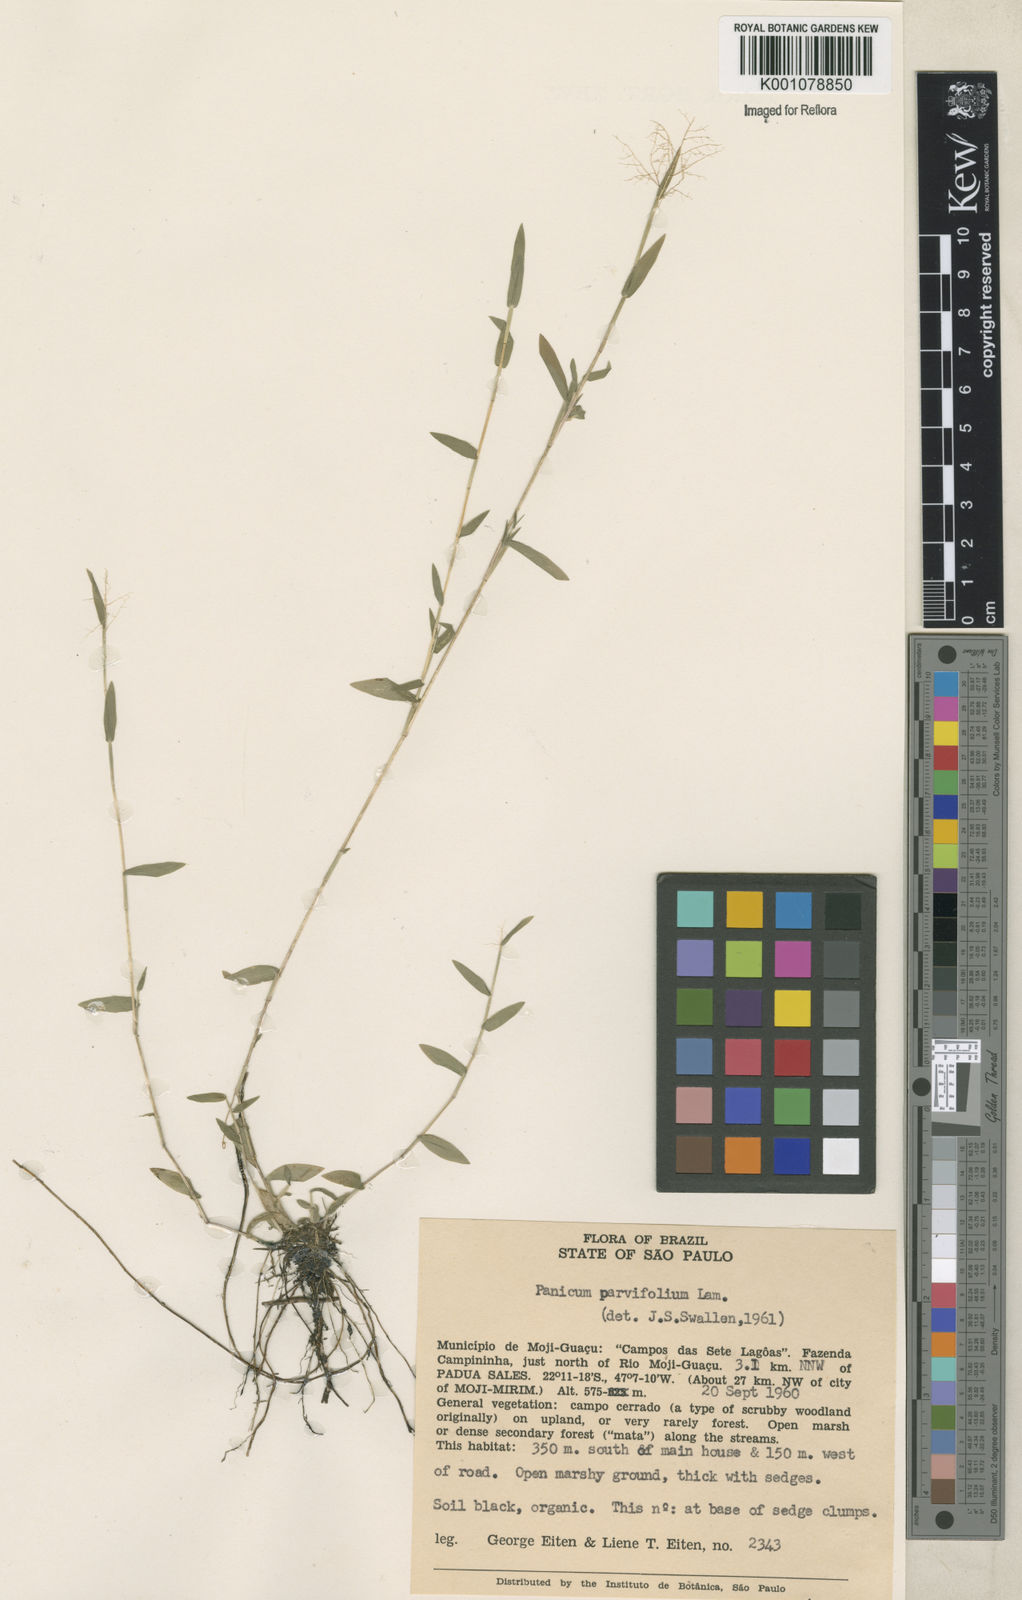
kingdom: Plantae
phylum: Tracheophyta
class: Liliopsida
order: Poales
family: Poaceae
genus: Trichanthecium
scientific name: Trichanthecium parvifolium
